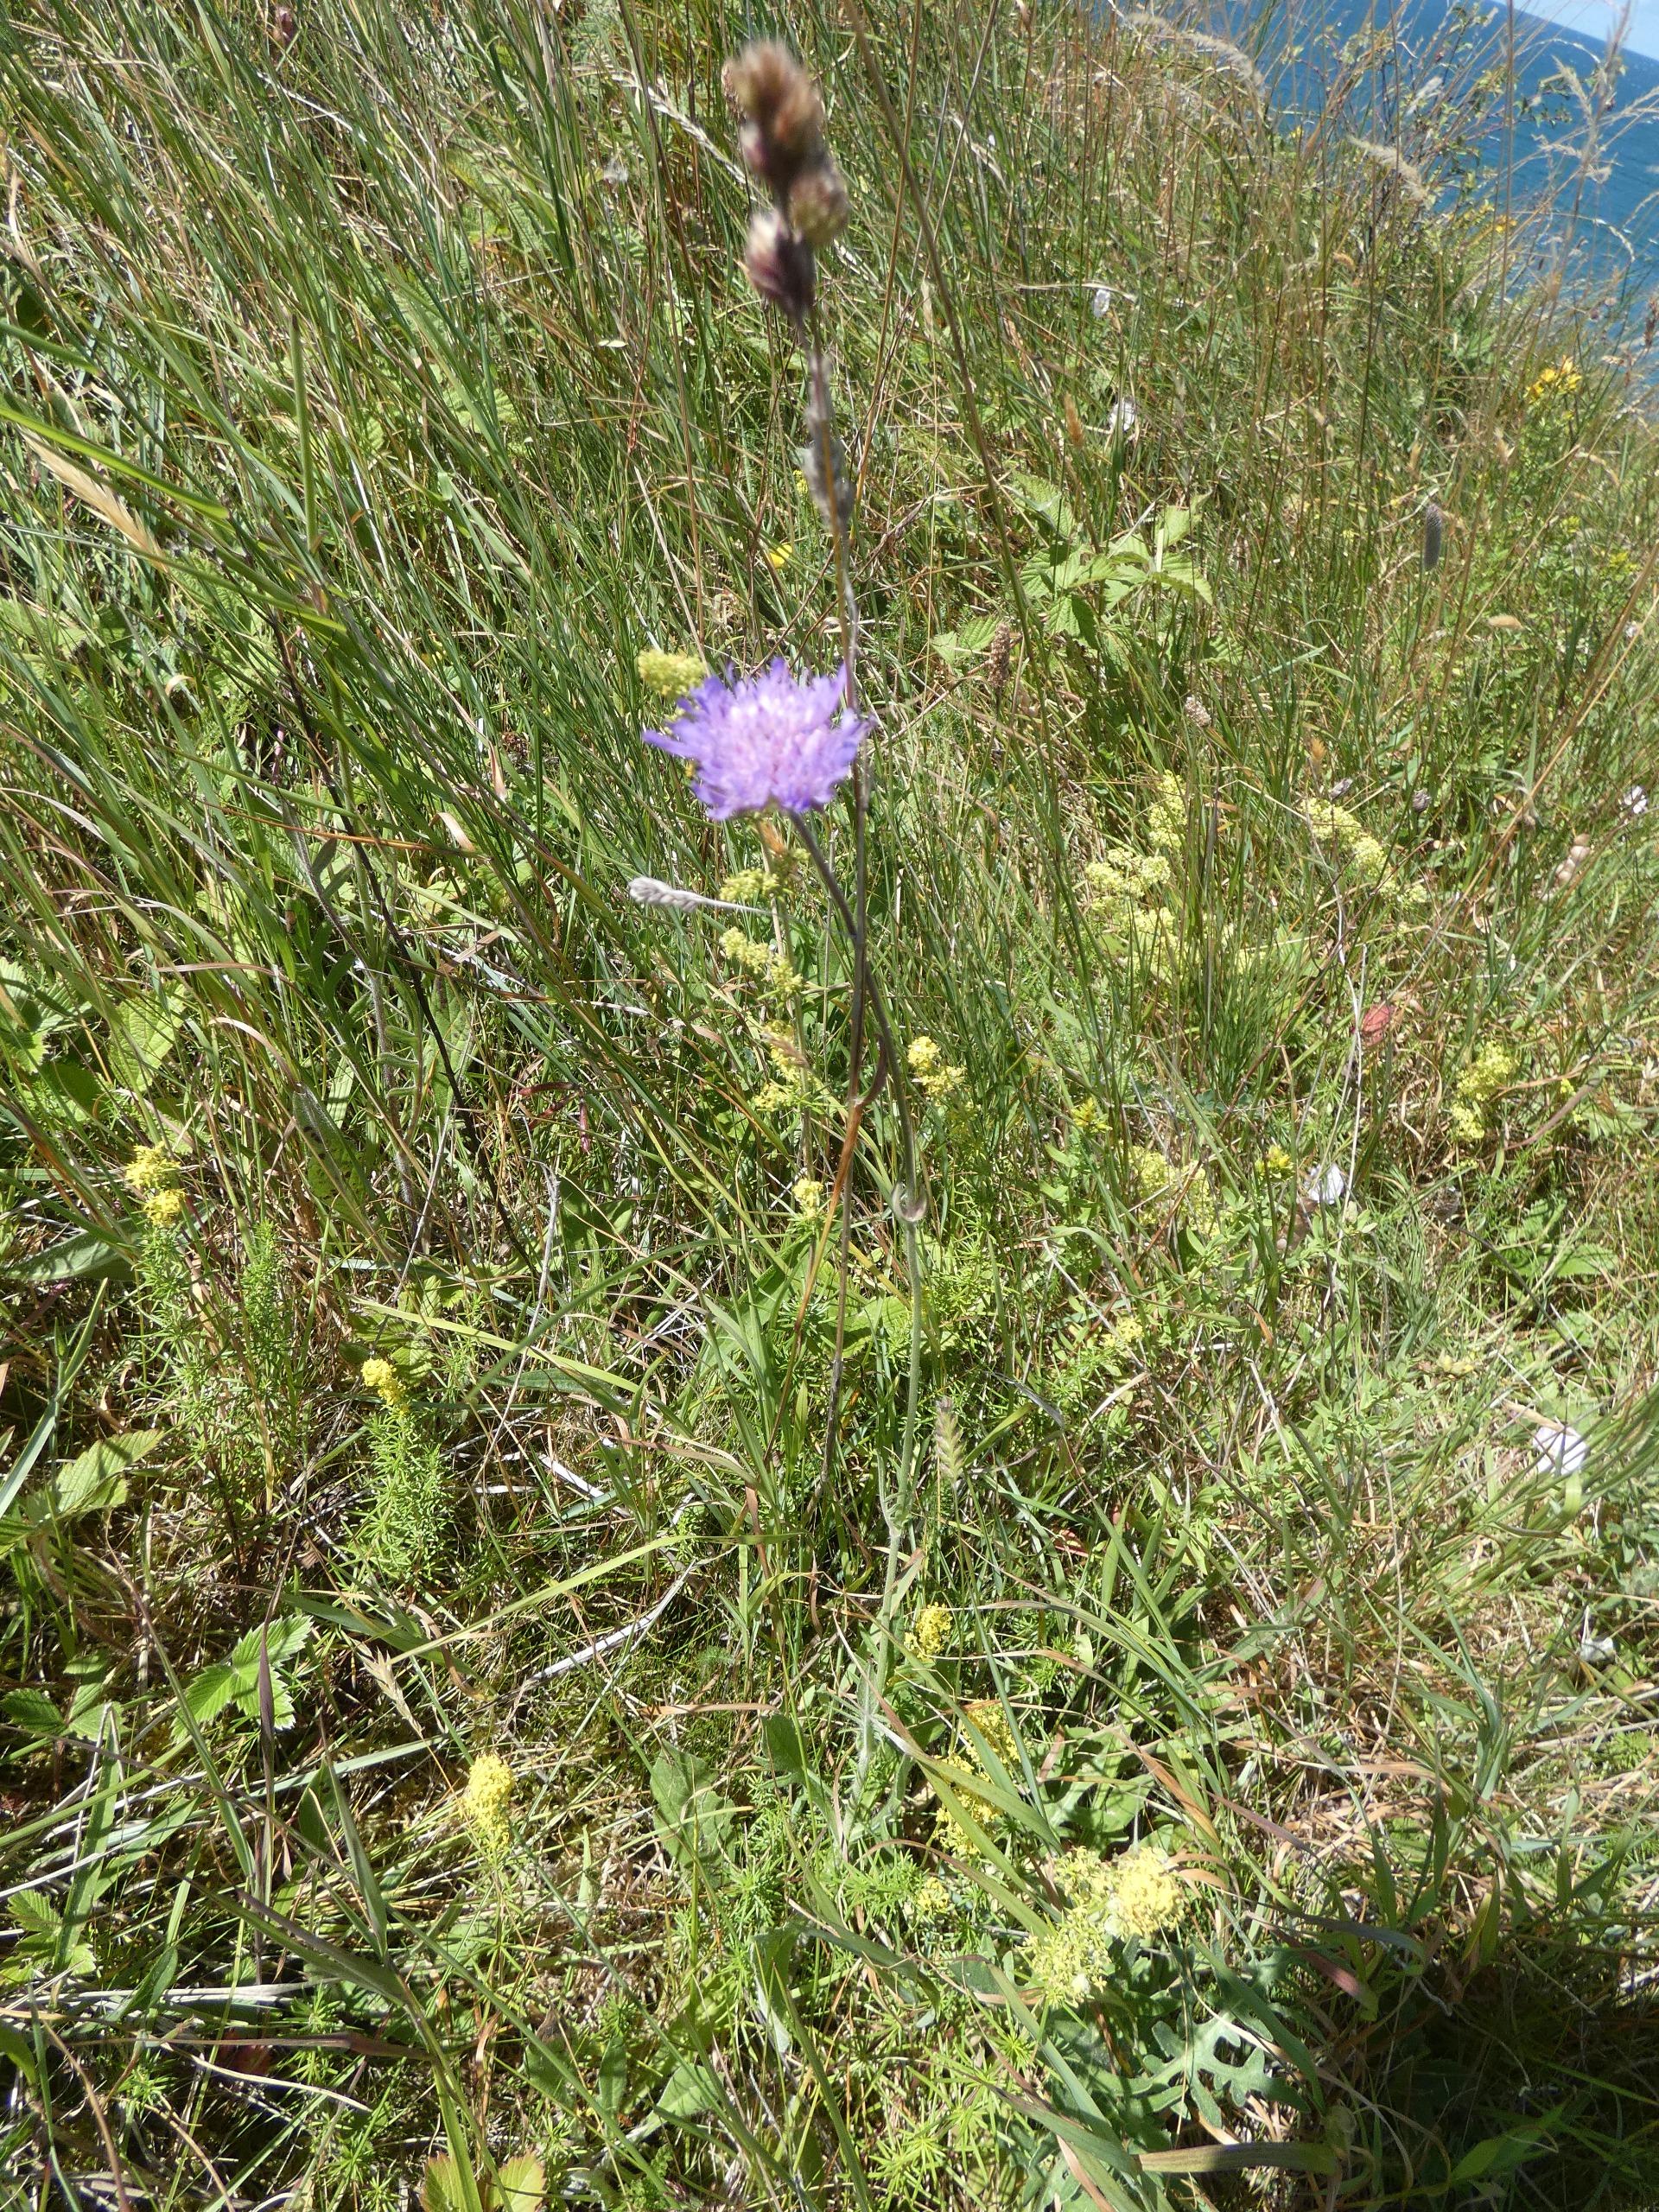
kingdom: Plantae
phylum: Tracheophyta
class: Magnoliopsida
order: Dipsacales
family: Caprifoliaceae
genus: Knautia
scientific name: Knautia arvensis
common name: Blåhat
